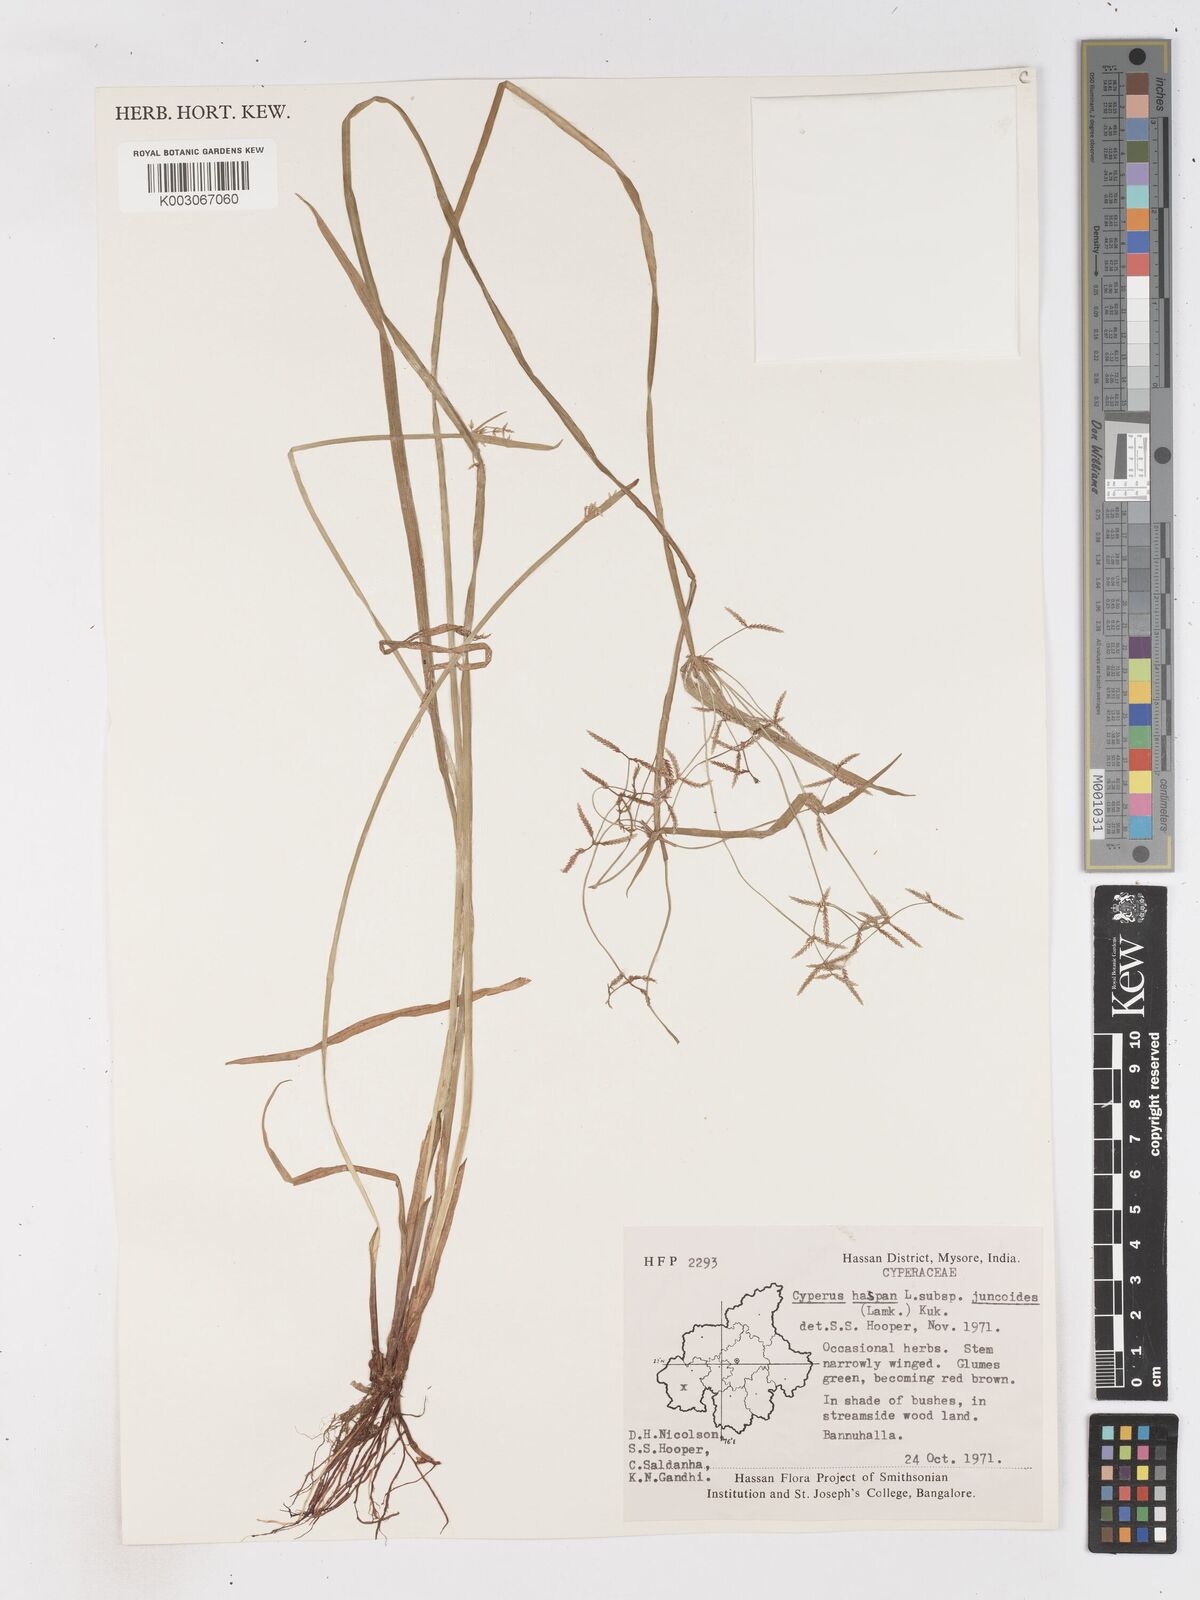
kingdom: Plantae
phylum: Tracheophyta
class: Liliopsida
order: Poales
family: Cyperaceae
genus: Cyperus
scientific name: Cyperus haspan
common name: Haspan flatsedge
